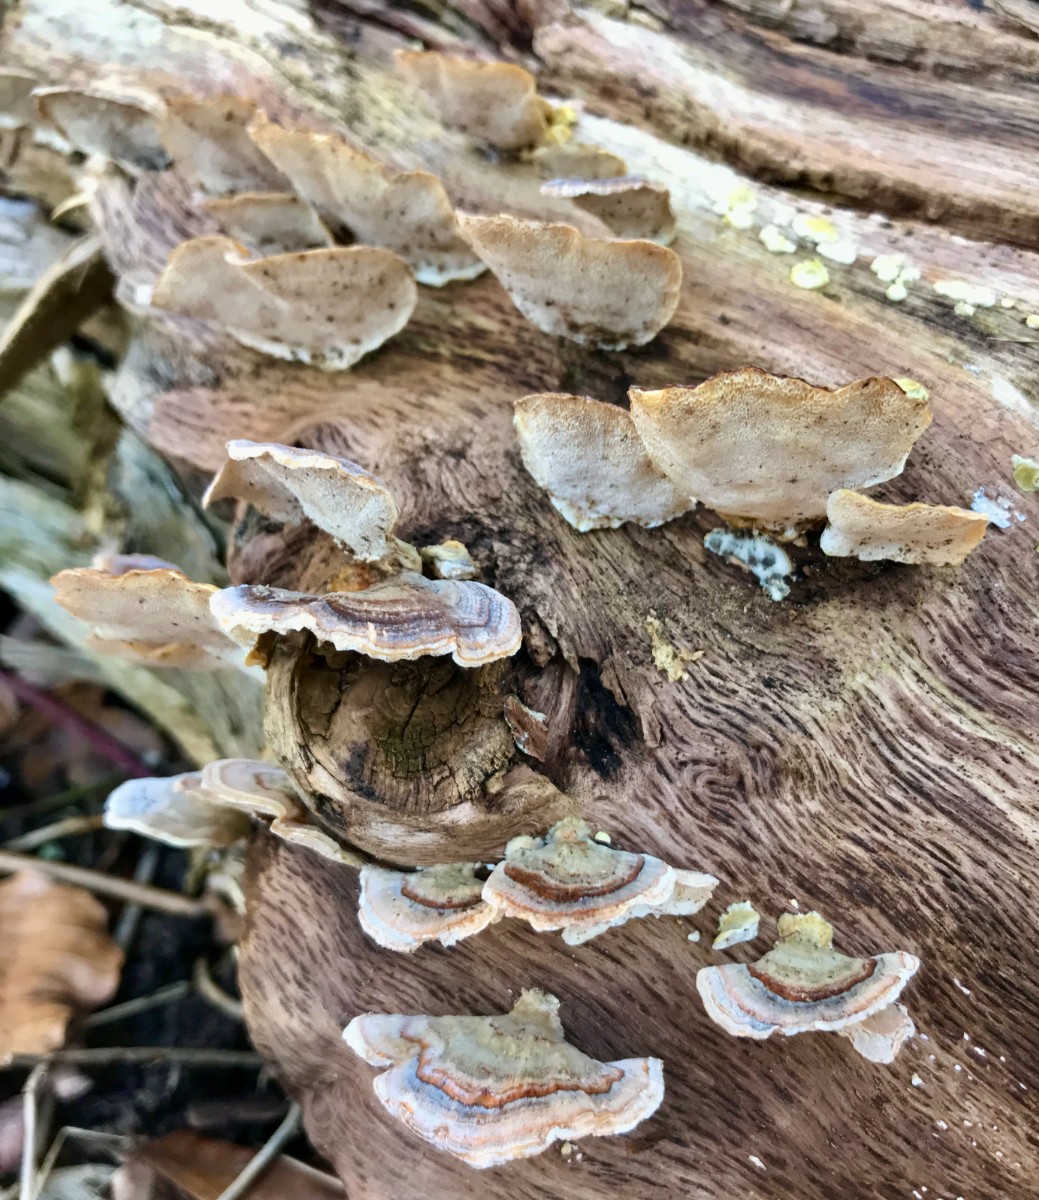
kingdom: Fungi
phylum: Basidiomycota
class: Agaricomycetes
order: Polyporales
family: Polyporaceae
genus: Trametes
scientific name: Trametes versicolor
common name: broget læderporesvamp
